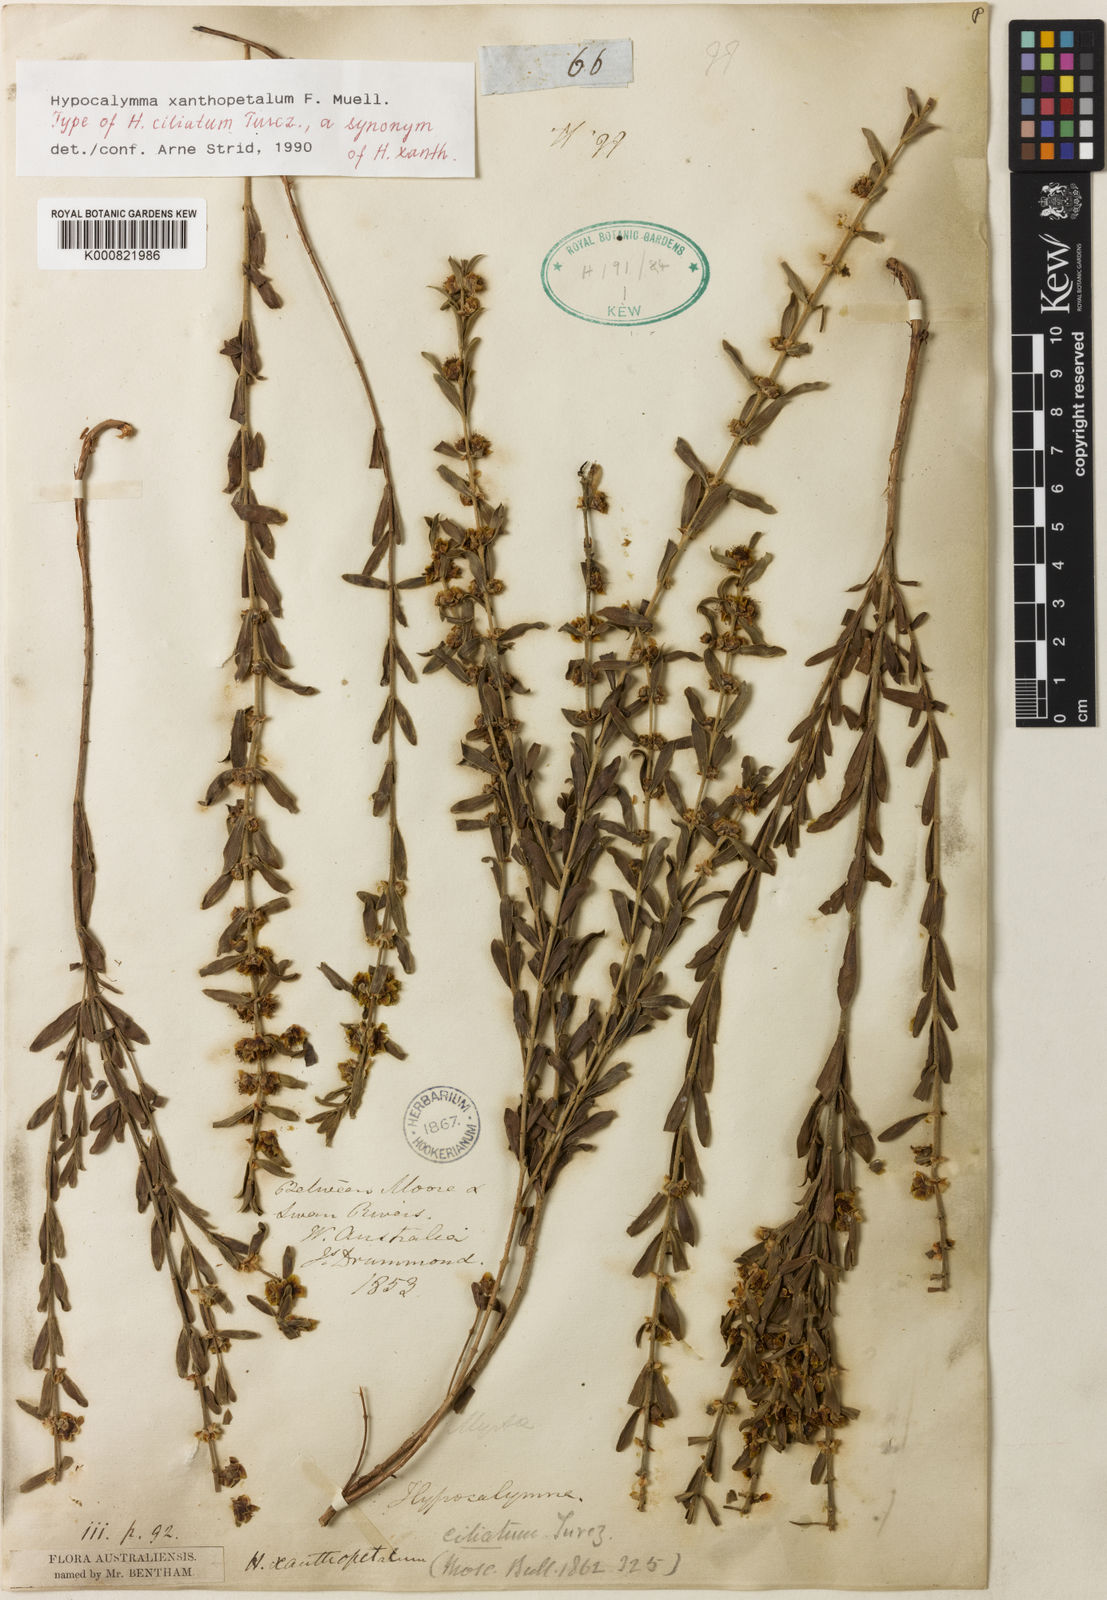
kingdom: Plantae
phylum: Tracheophyta
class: Magnoliopsida
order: Myrtales
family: Myrtaceae
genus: Hypocalymma
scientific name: Hypocalymma xanthopetalum
